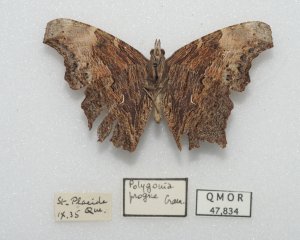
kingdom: Animalia
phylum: Arthropoda
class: Insecta
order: Lepidoptera
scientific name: Lepidoptera
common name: Butterflies
